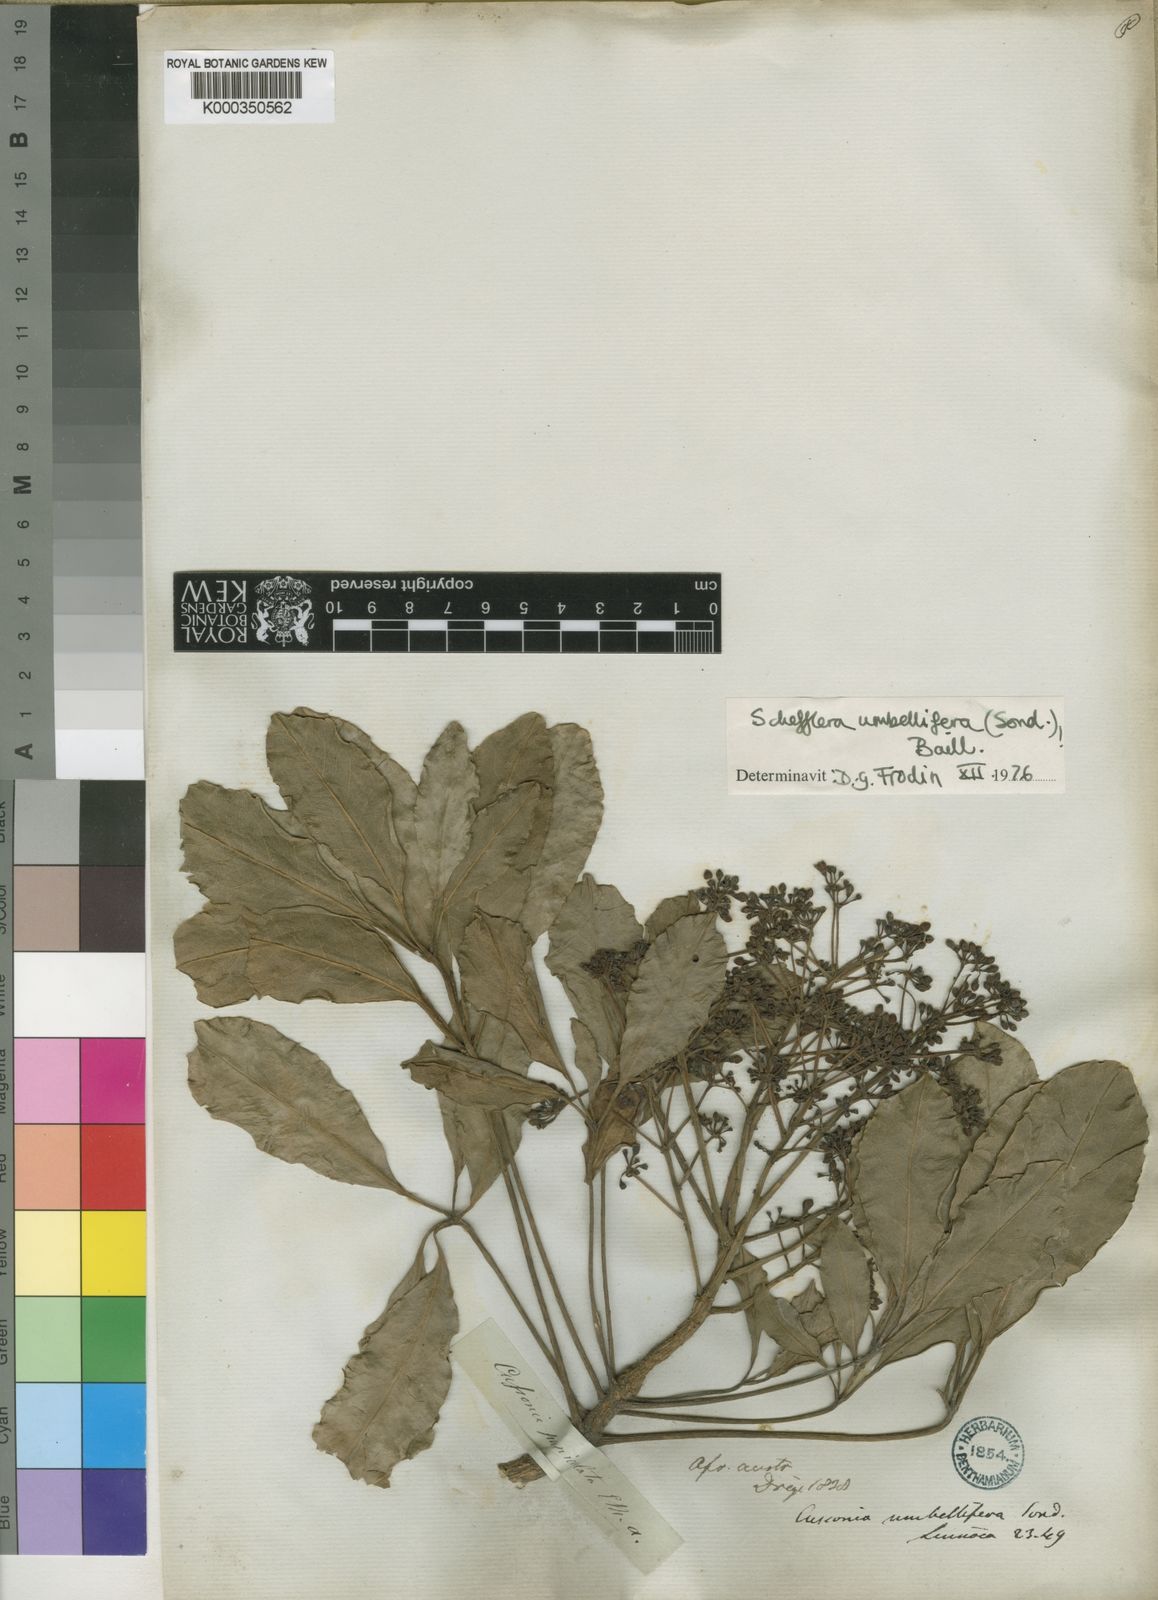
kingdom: Plantae
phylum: Tracheophyta
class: Magnoliopsida
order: Apiales
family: Araliaceae
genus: Neocussonia
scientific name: Neocussonia umbellifera
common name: False cabbage tree
